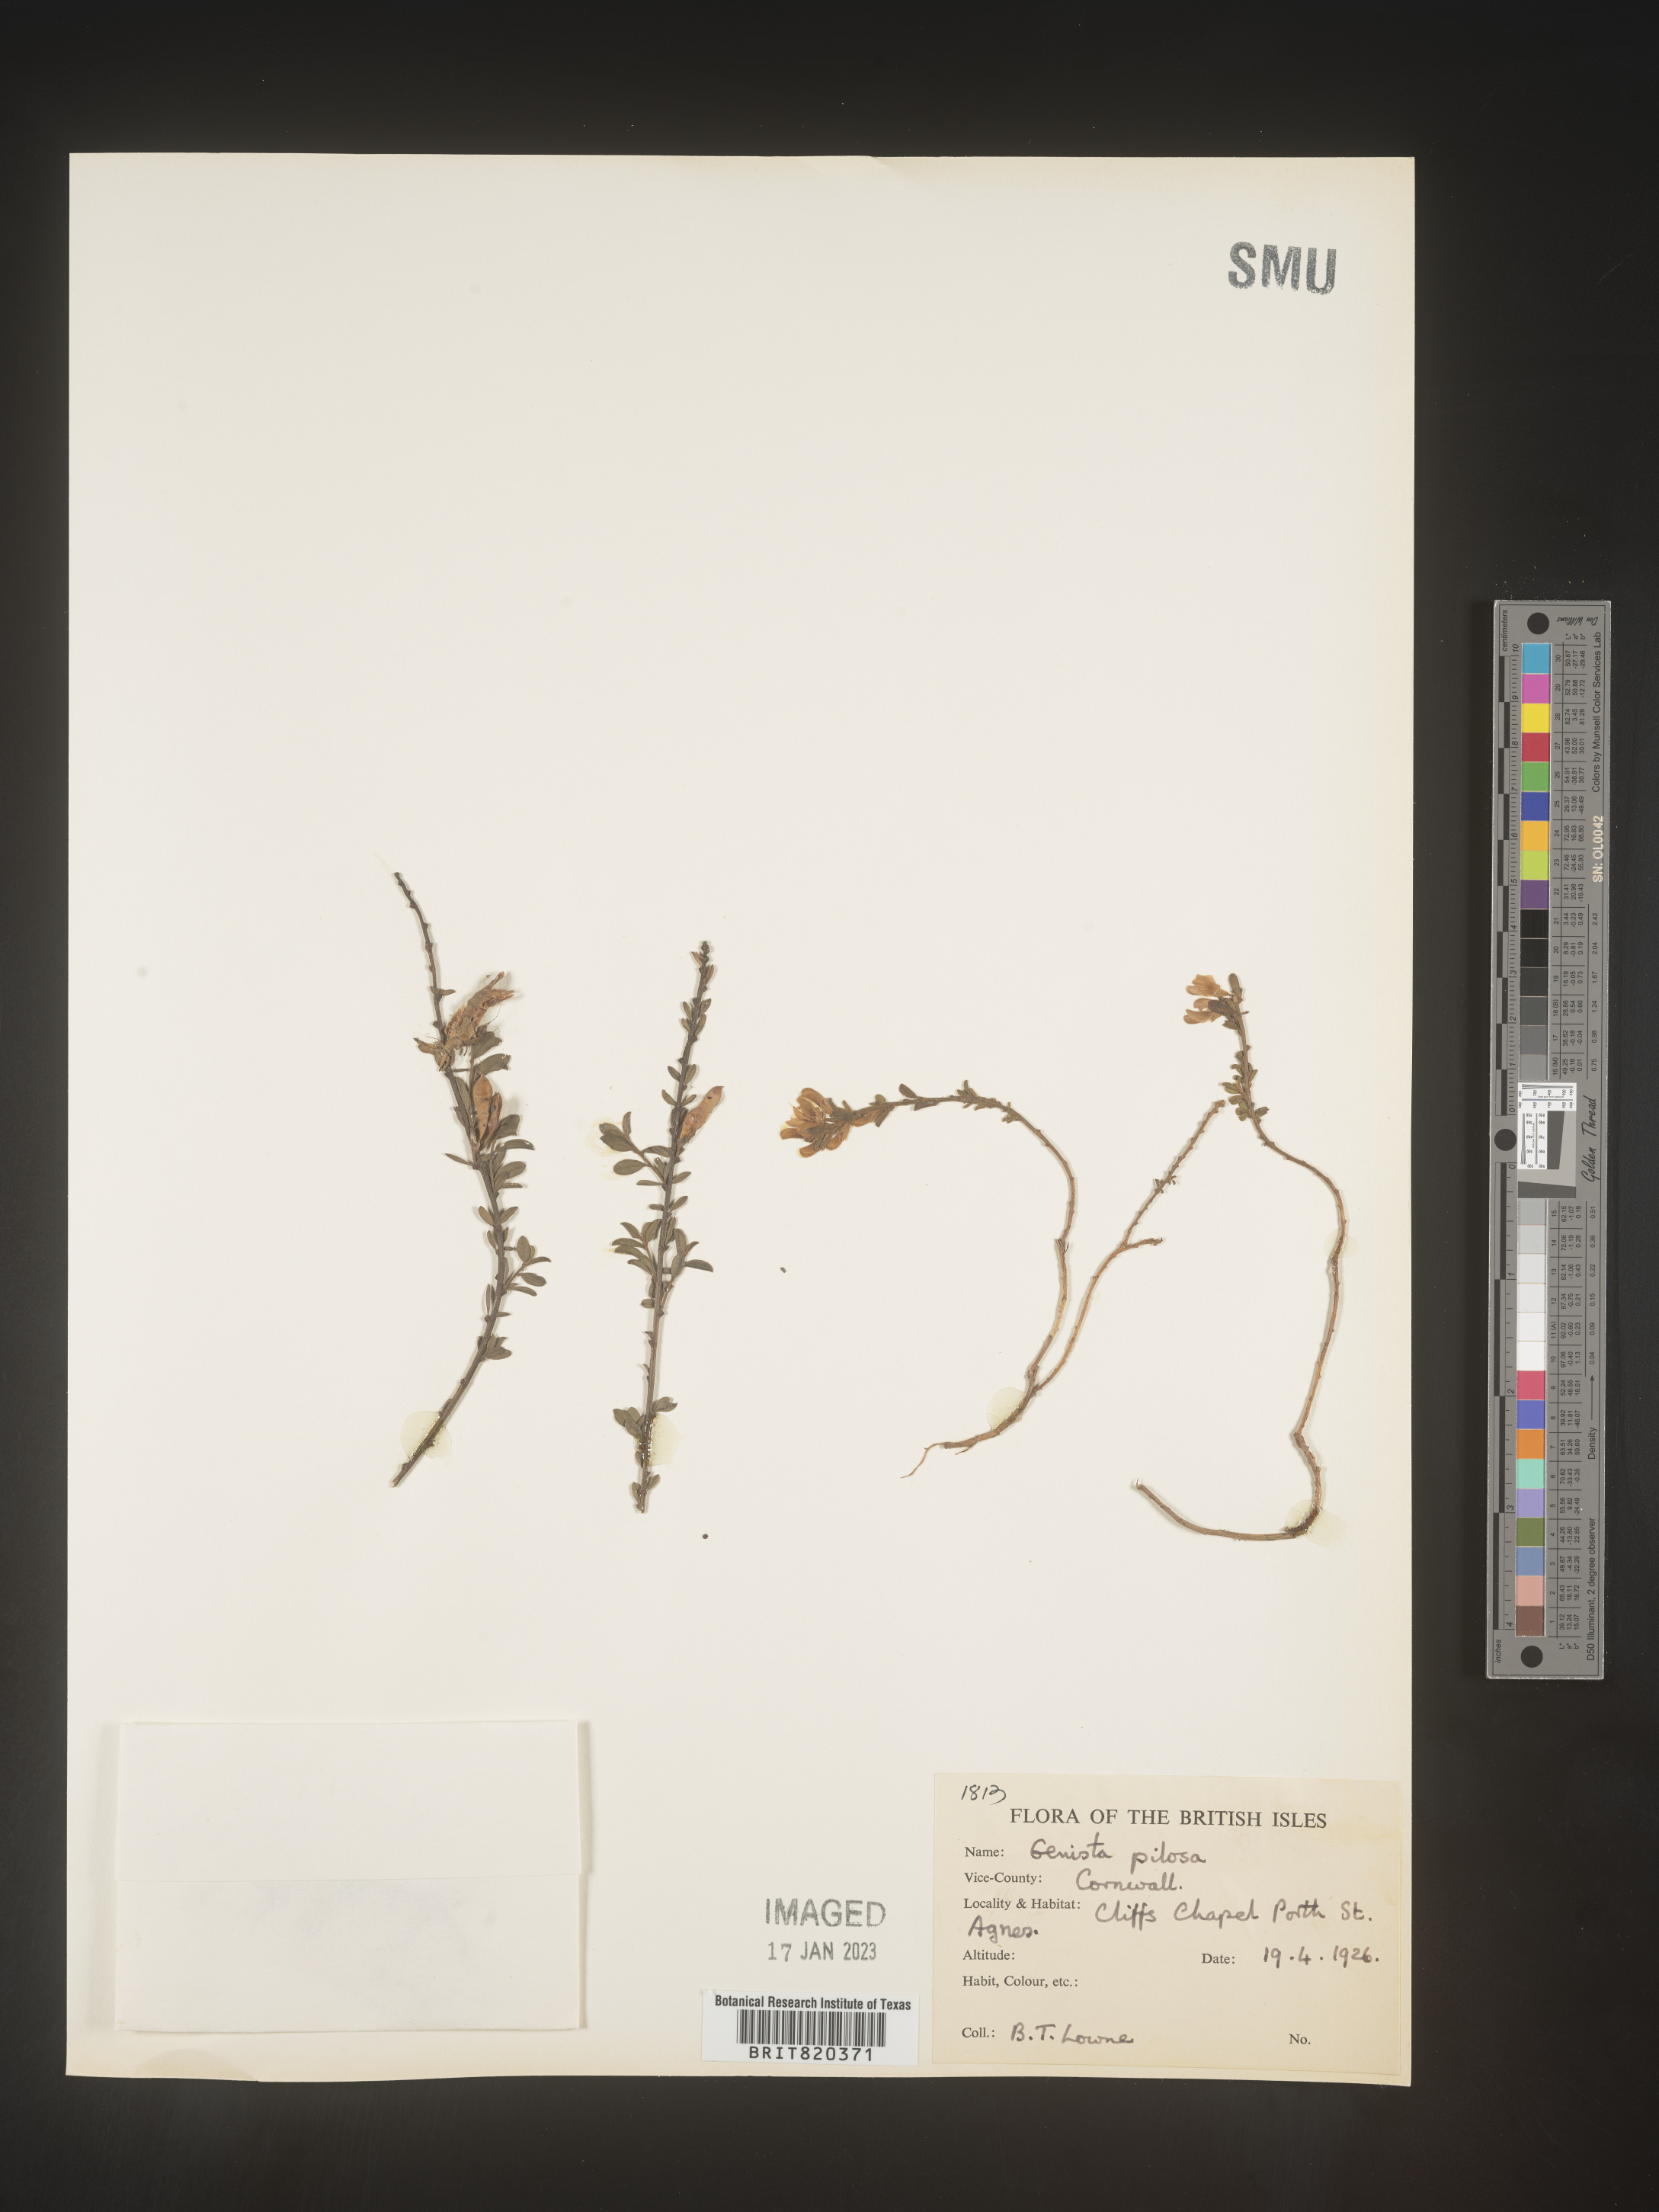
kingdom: Plantae
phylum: Tracheophyta
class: Magnoliopsida
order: Fabales
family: Fabaceae
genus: Genista
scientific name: Genista
